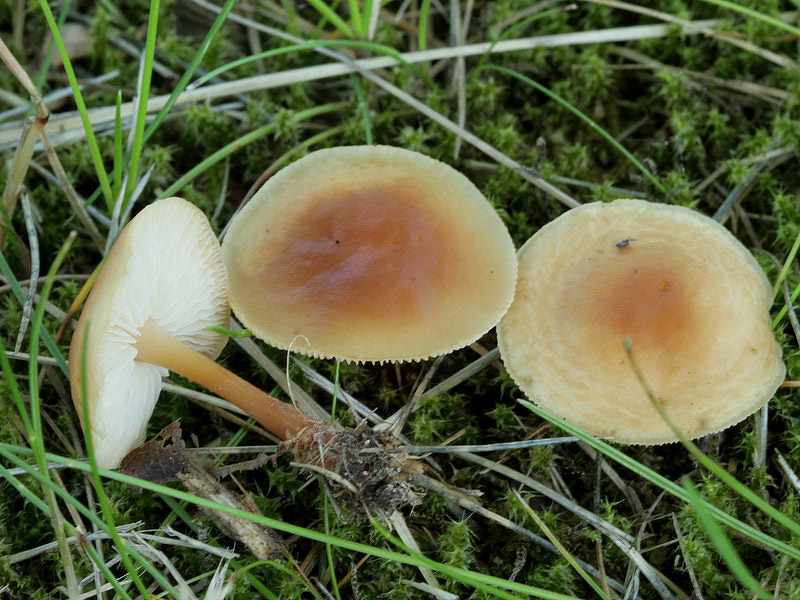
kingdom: Fungi
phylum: Basidiomycota
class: Agaricomycetes
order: Agaricales
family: Omphalotaceae
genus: Gymnopus
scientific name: Gymnopus dryophilus
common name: løv-fladhat
